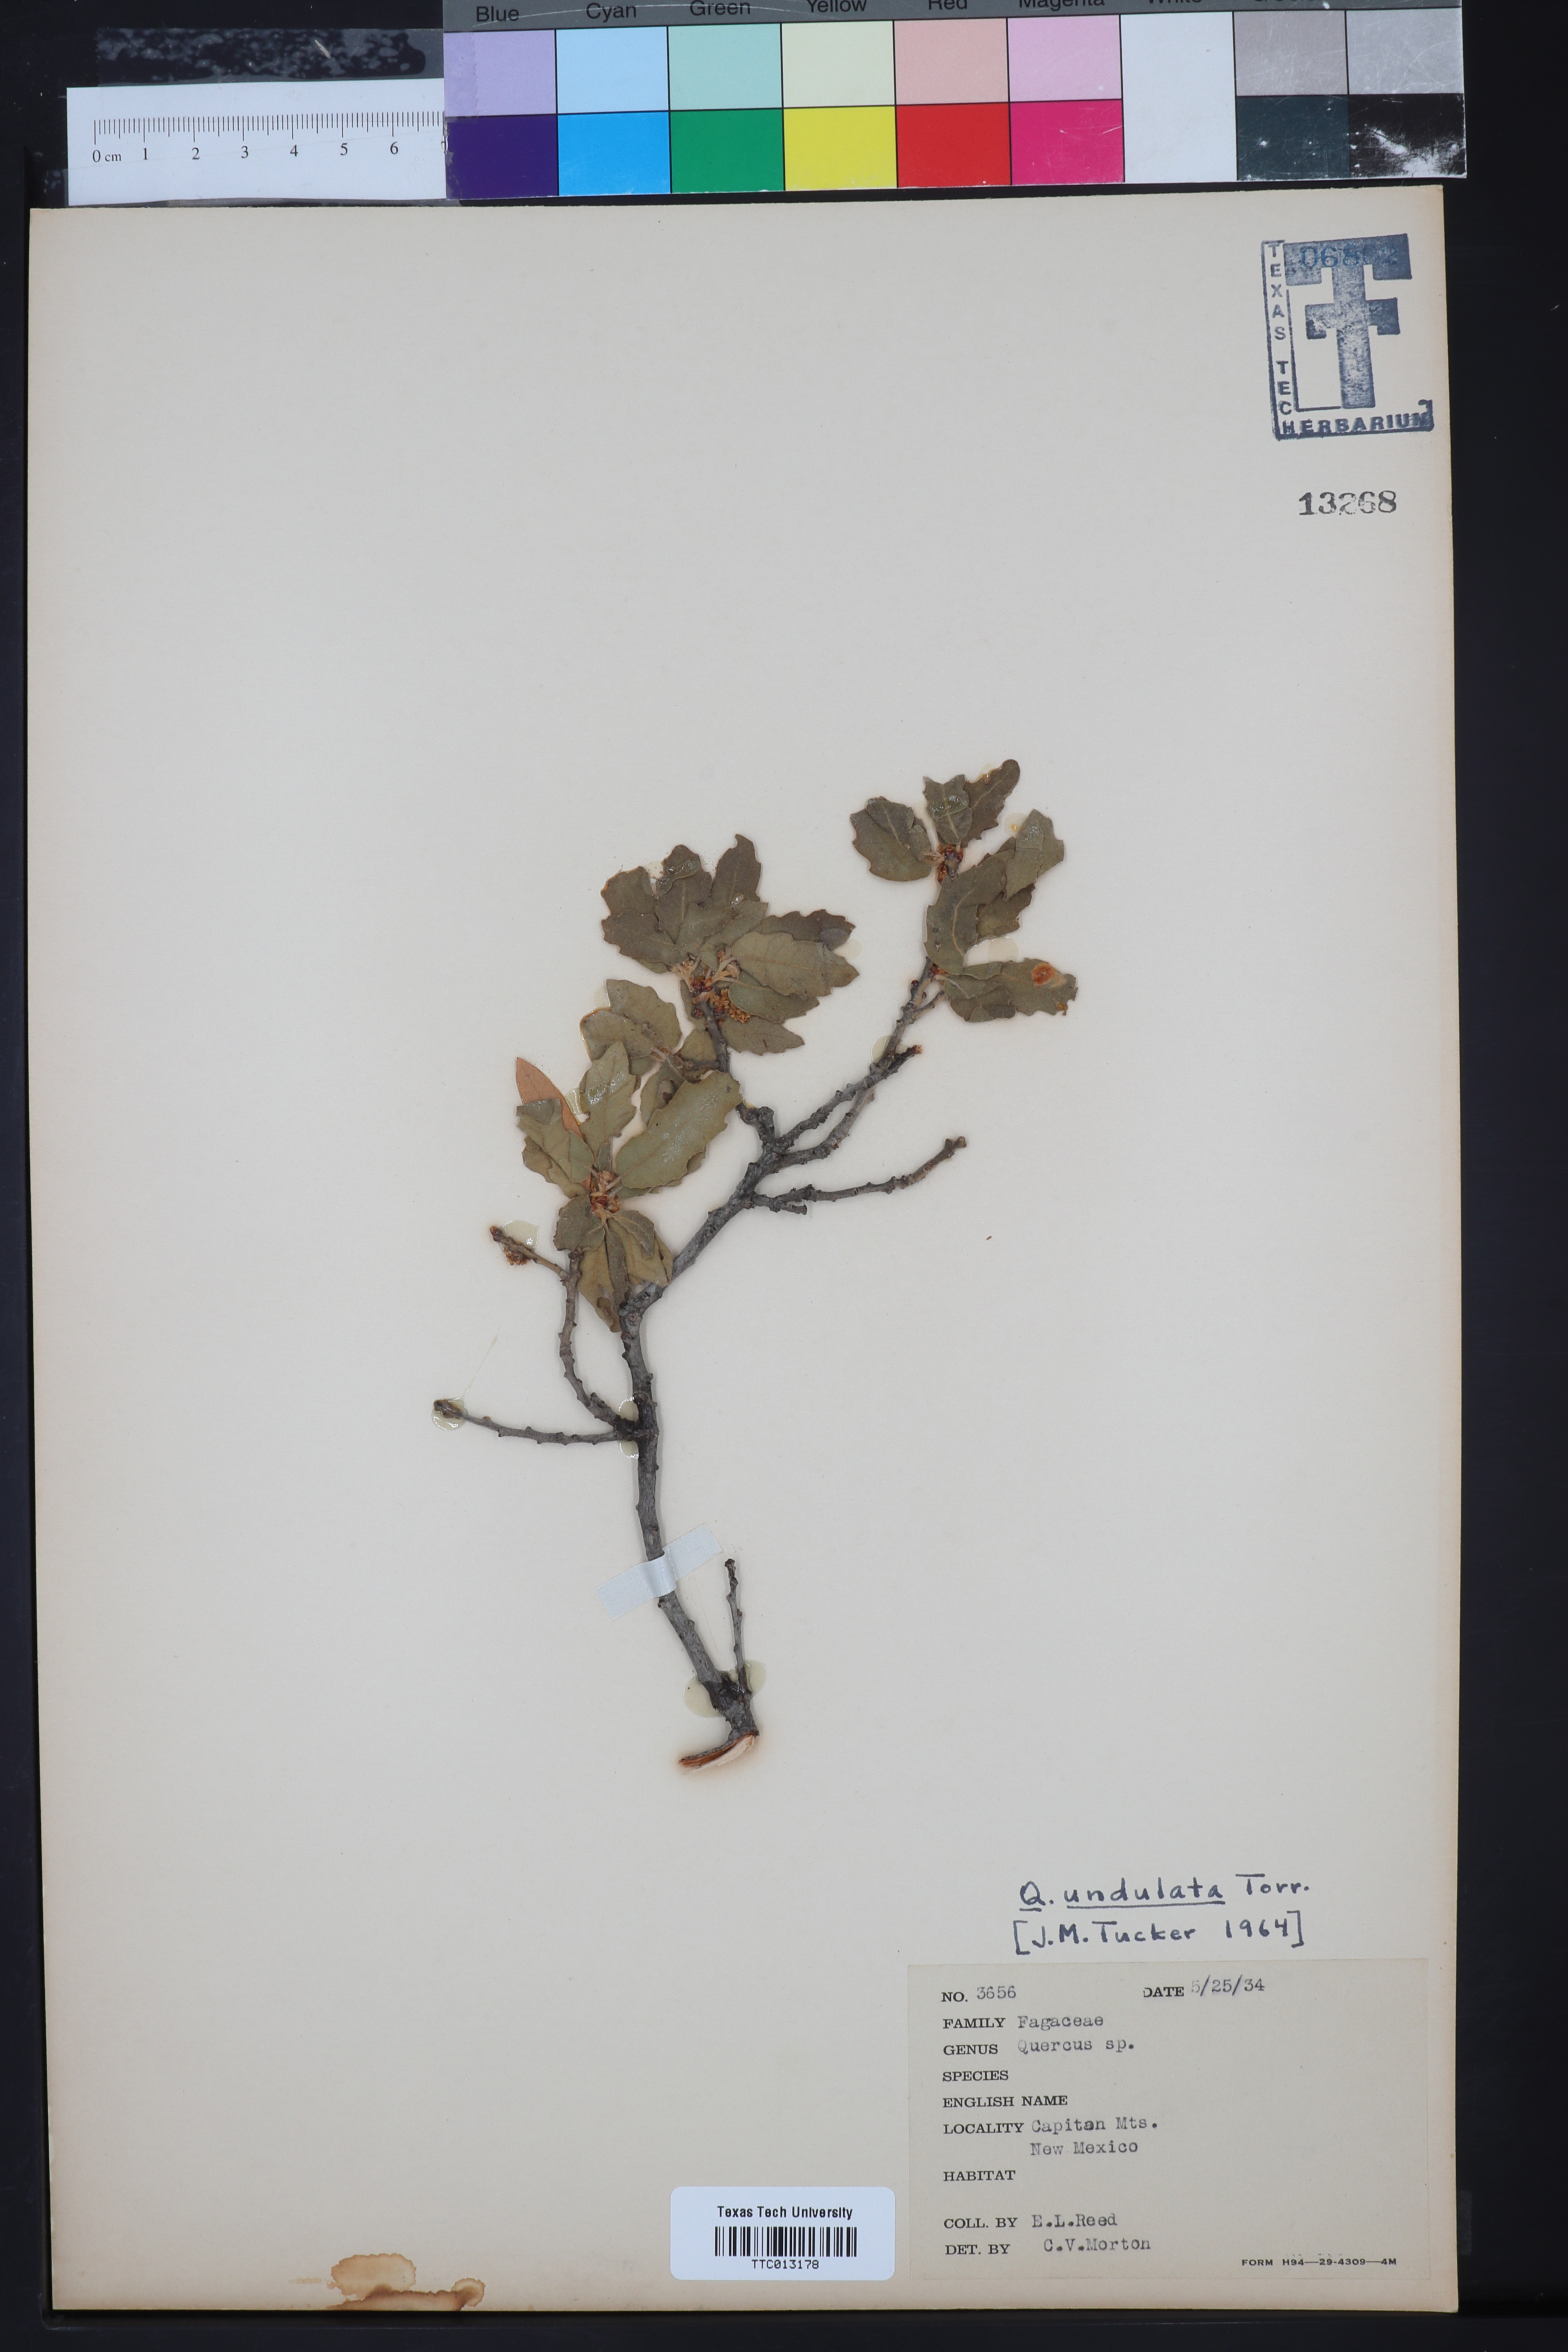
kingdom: Plantae
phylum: Tracheophyta
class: Magnoliopsida
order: Fagales
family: Fagaceae
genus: Quercus
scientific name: Quercus undulata
